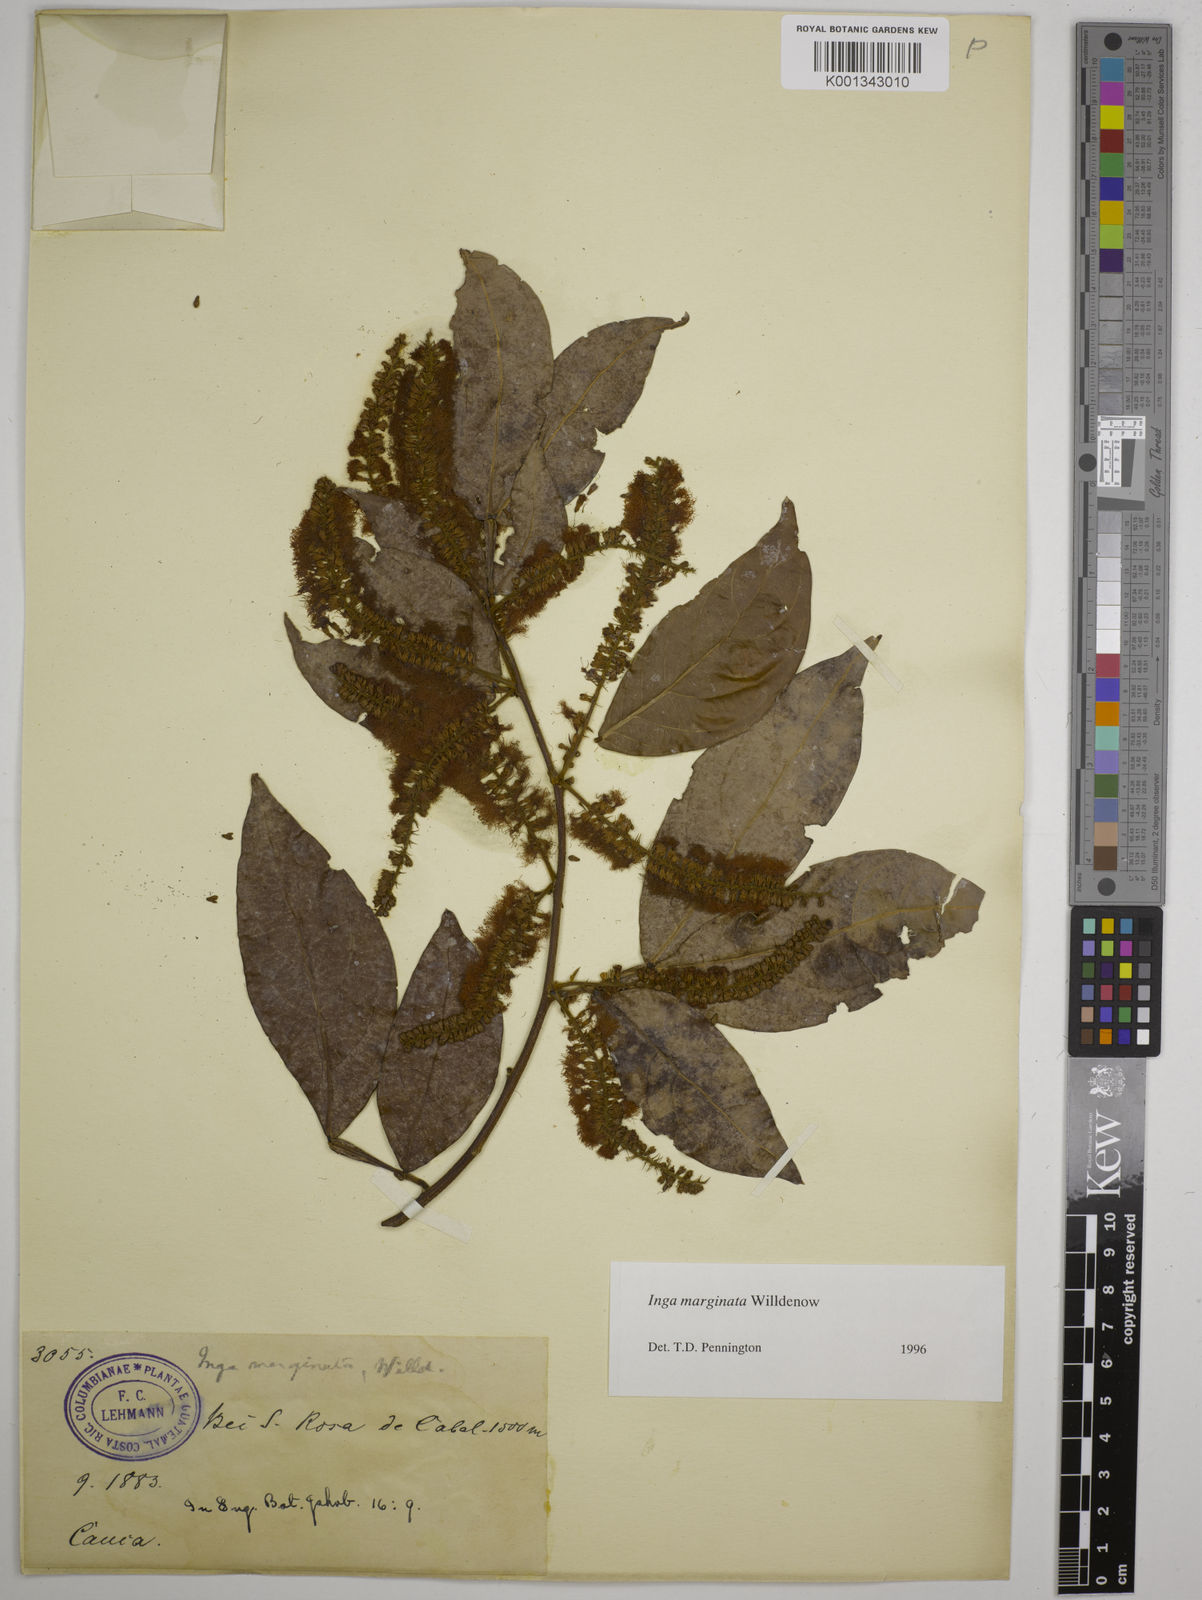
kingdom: Plantae
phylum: Tracheophyta
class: Magnoliopsida
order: Fabales
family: Fabaceae
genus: Inga
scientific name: Inga marginata
